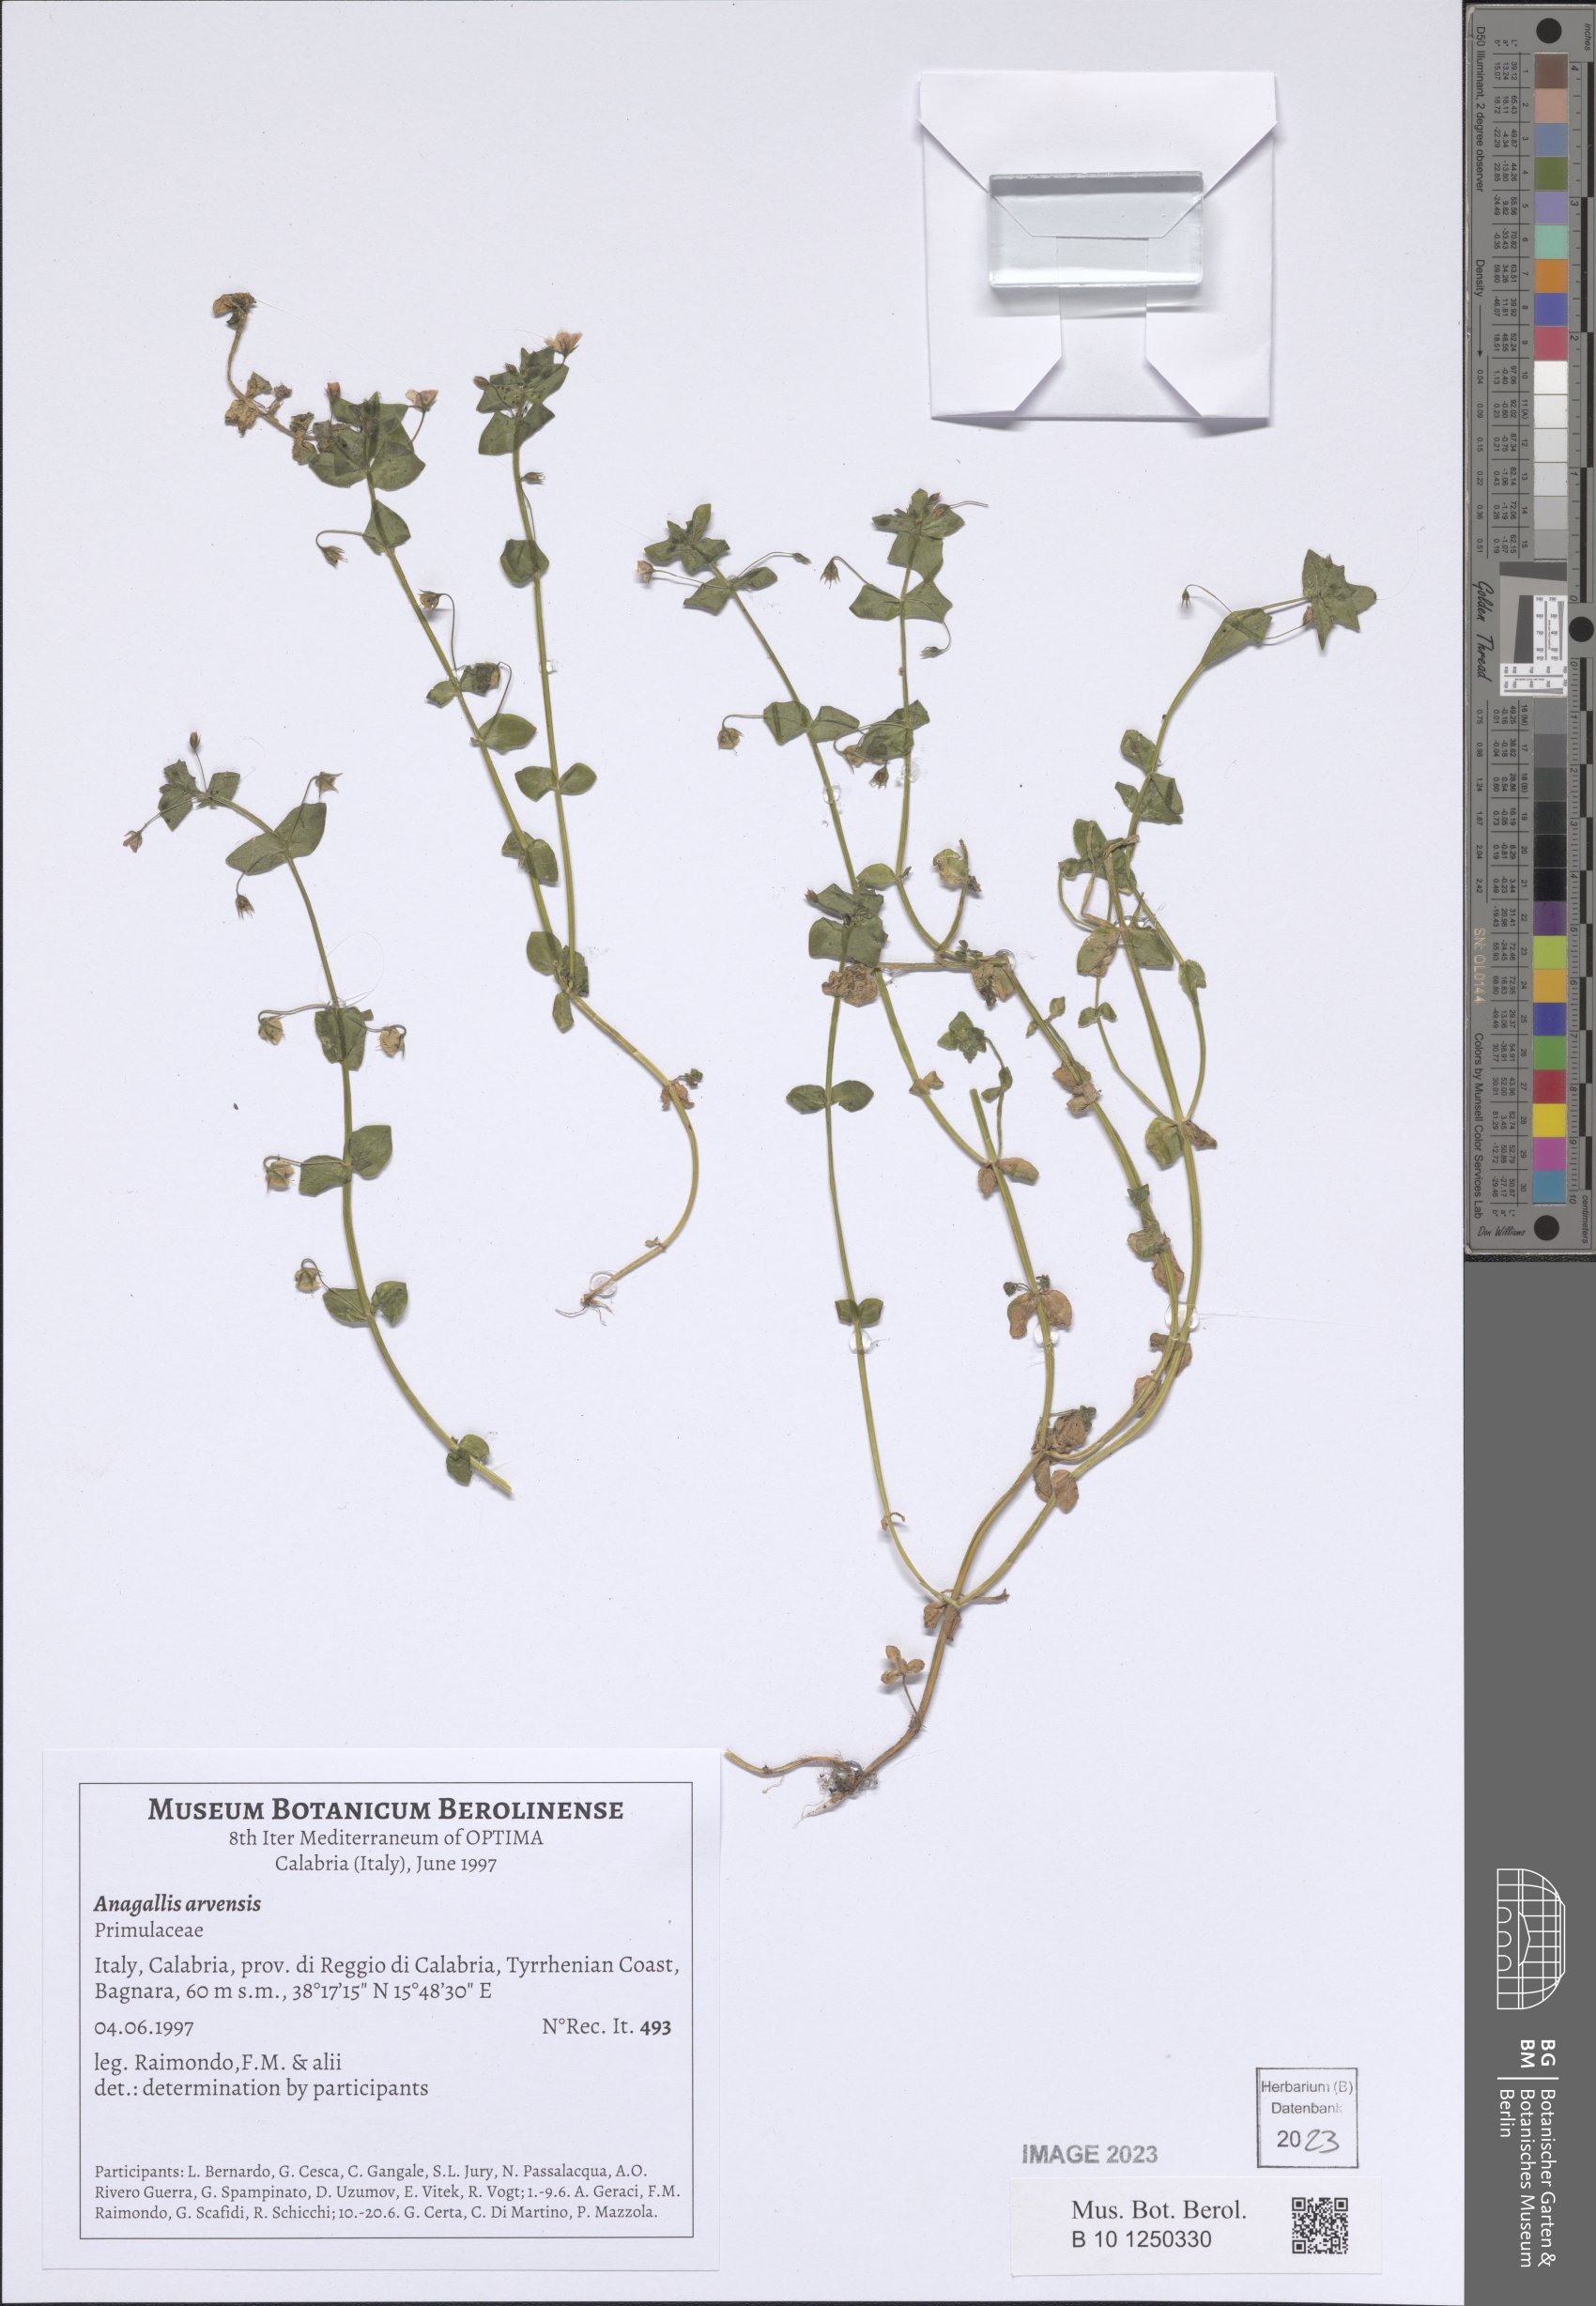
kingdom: Plantae
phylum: Tracheophyta
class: Magnoliopsida
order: Ericales
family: Primulaceae
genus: Lysimachia
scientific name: Lysimachia arvensis
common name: Scarlet pimpernel
